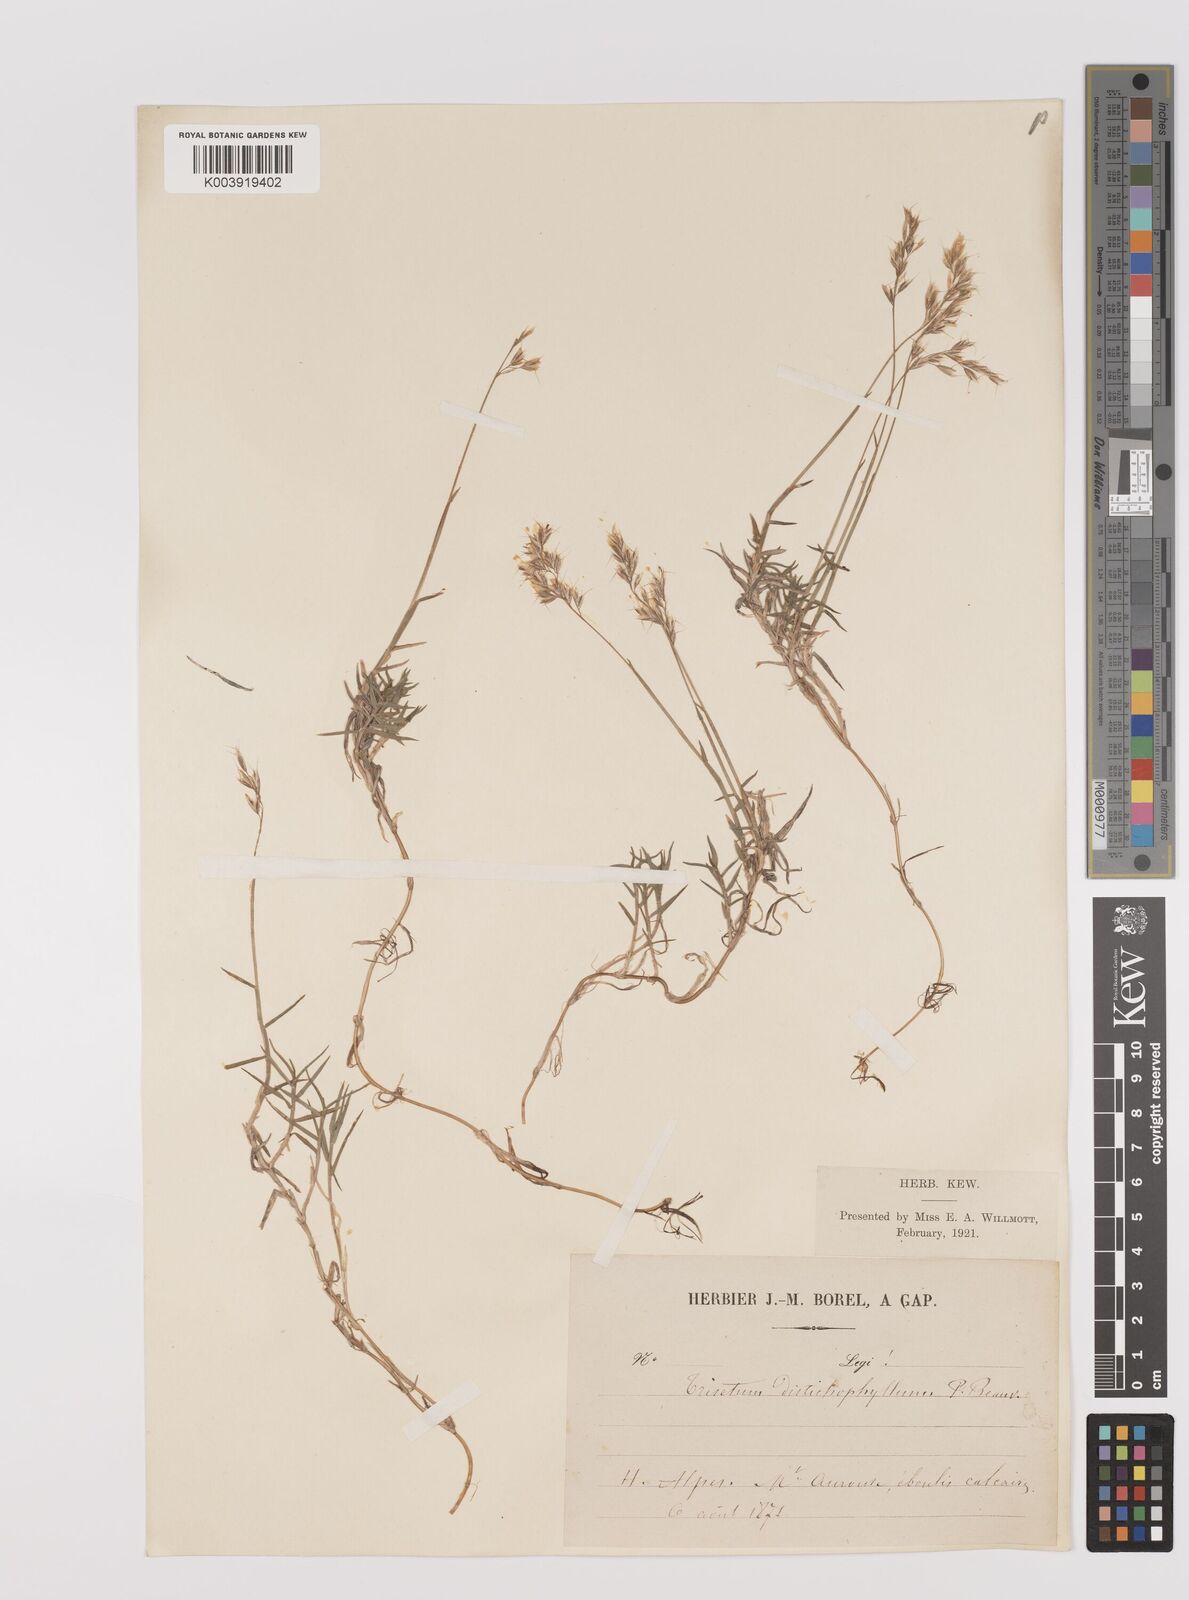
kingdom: Plantae
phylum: Tracheophyta
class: Liliopsida
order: Poales
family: Poaceae
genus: Acrospelion
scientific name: Acrospelion distichophyllum
